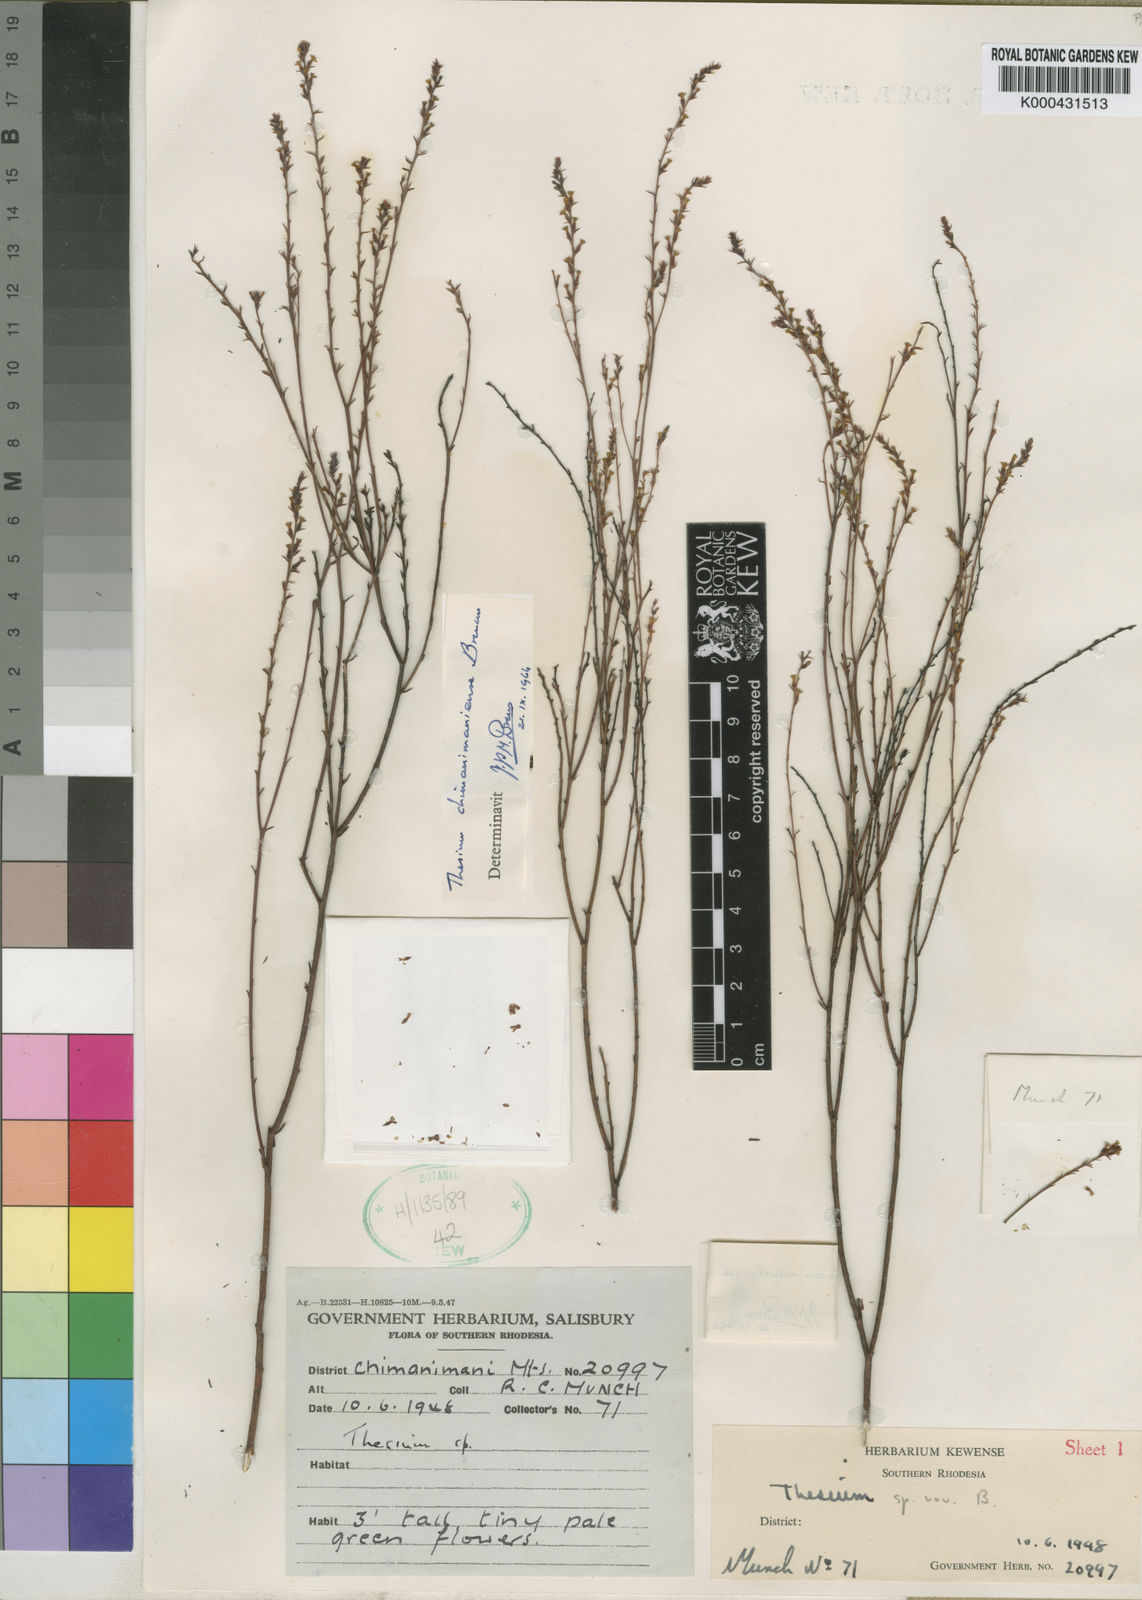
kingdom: Plantae
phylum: Tracheophyta
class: Magnoliopsida
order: Santalales
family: Thesiaceae
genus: Thesium
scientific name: Thesium chimanimaniense
